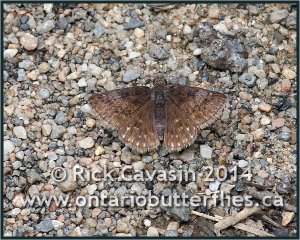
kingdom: Animalia
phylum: Arthropoda
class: Insecta
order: Lepidoptera
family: Hesperiidae
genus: Erynnis
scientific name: Erynnis icelus
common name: Dreamy Duskywing
